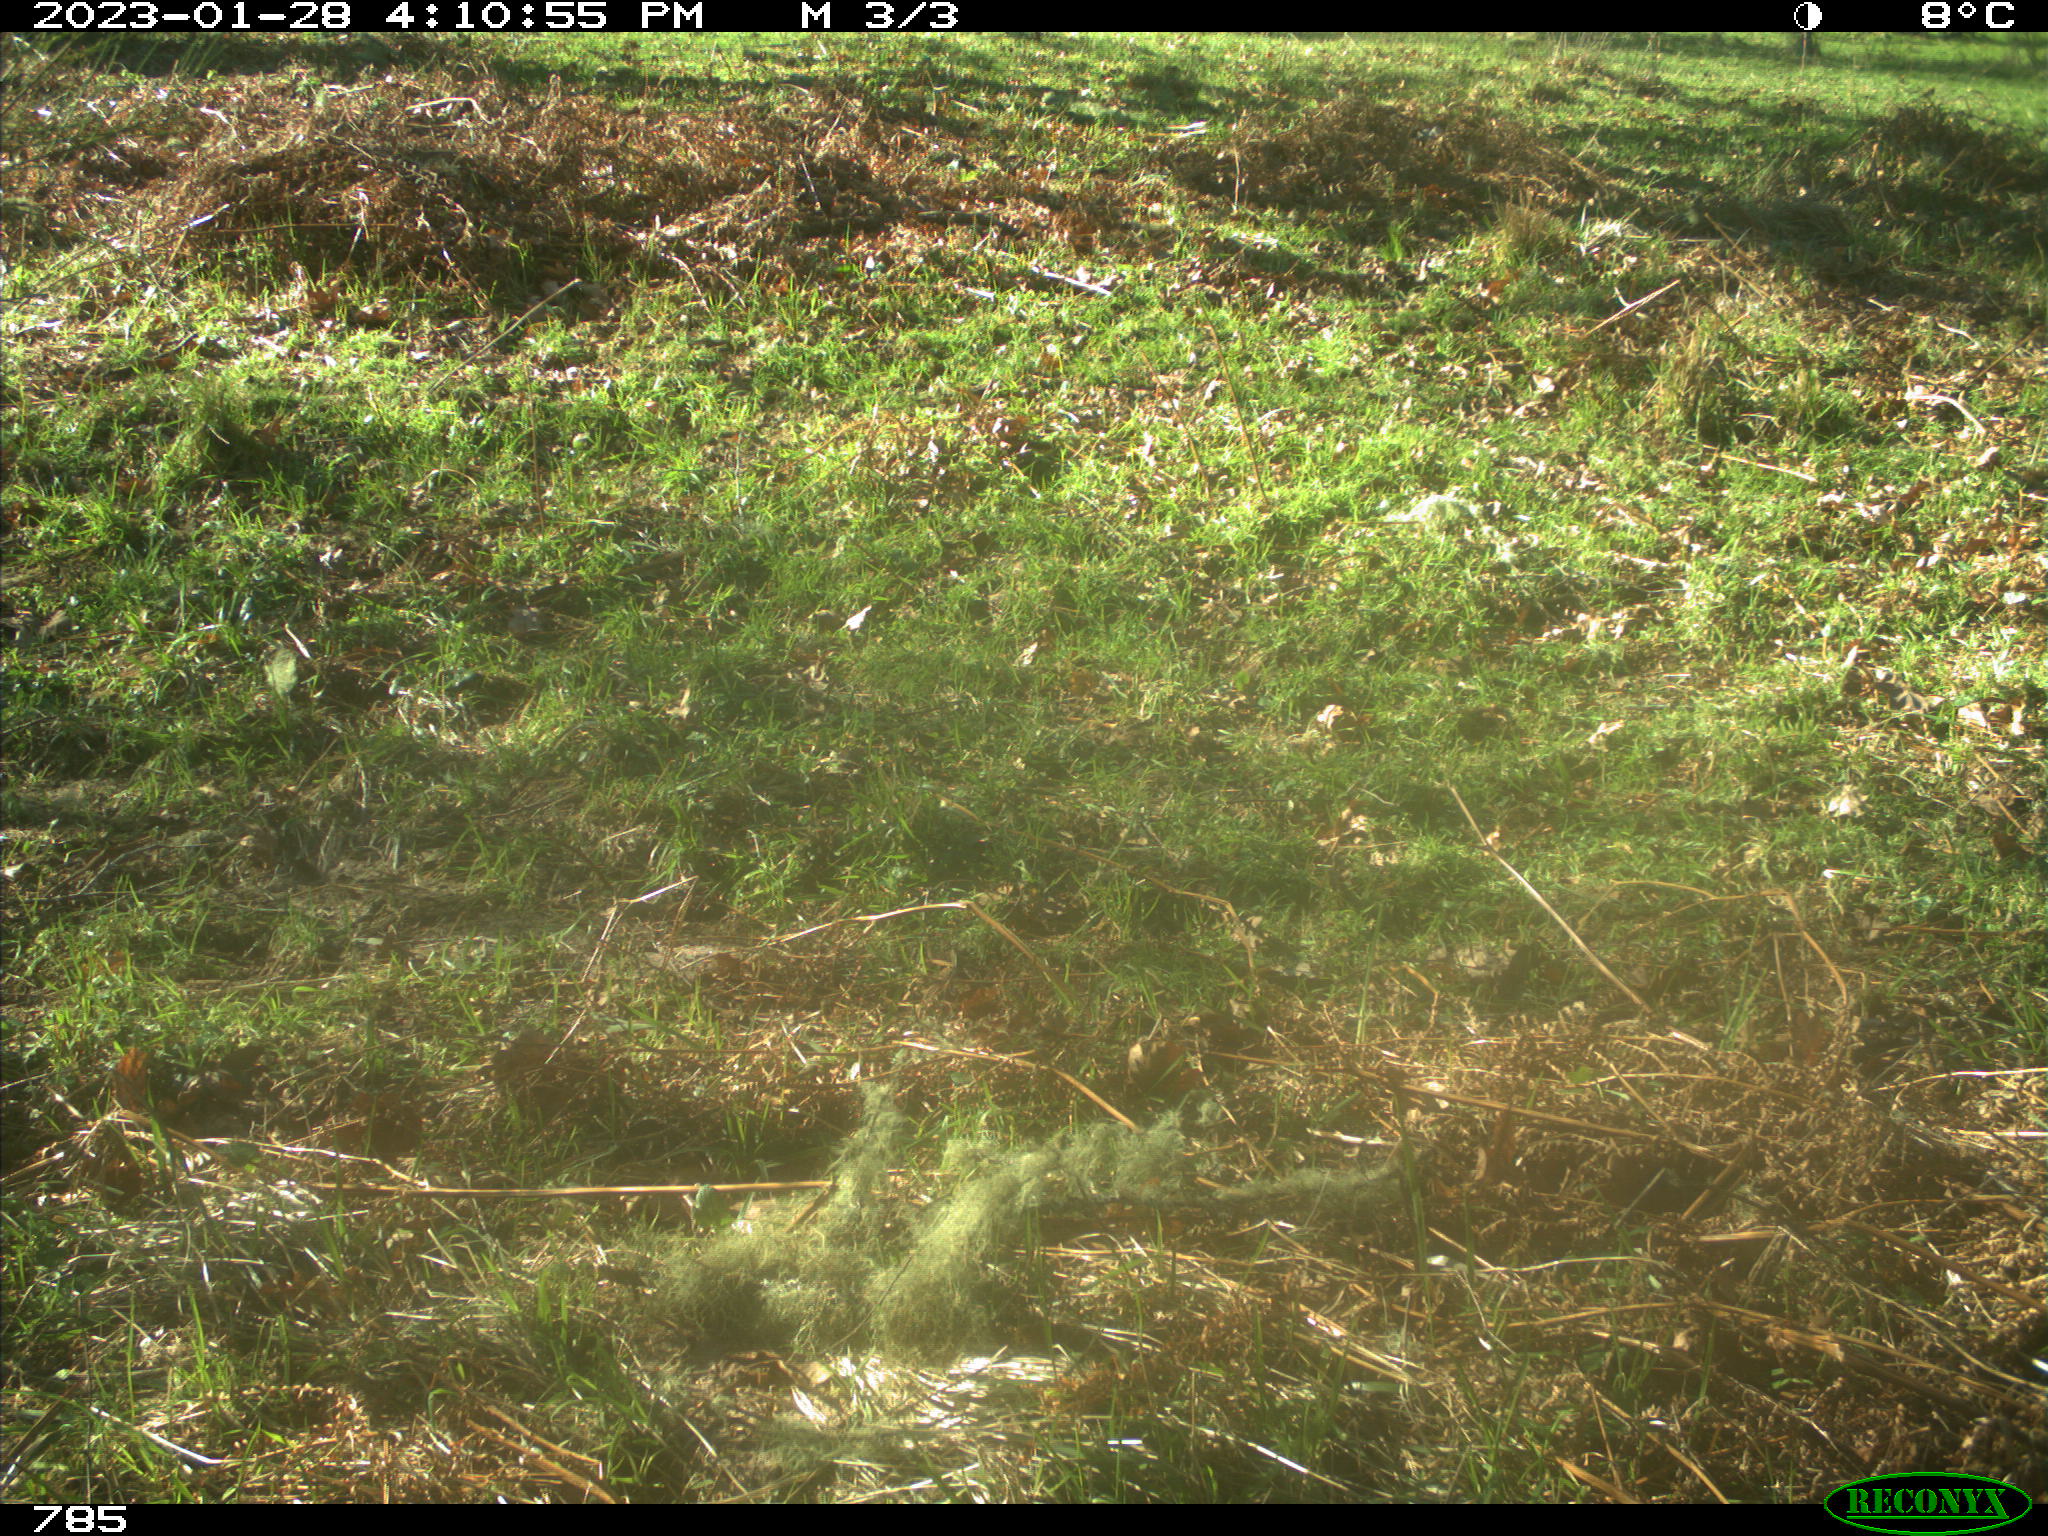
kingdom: Animalia
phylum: Chordata
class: Mammalia
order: Perissodactyla
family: Equidae
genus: Equus
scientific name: Equus caballus
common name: Horse
